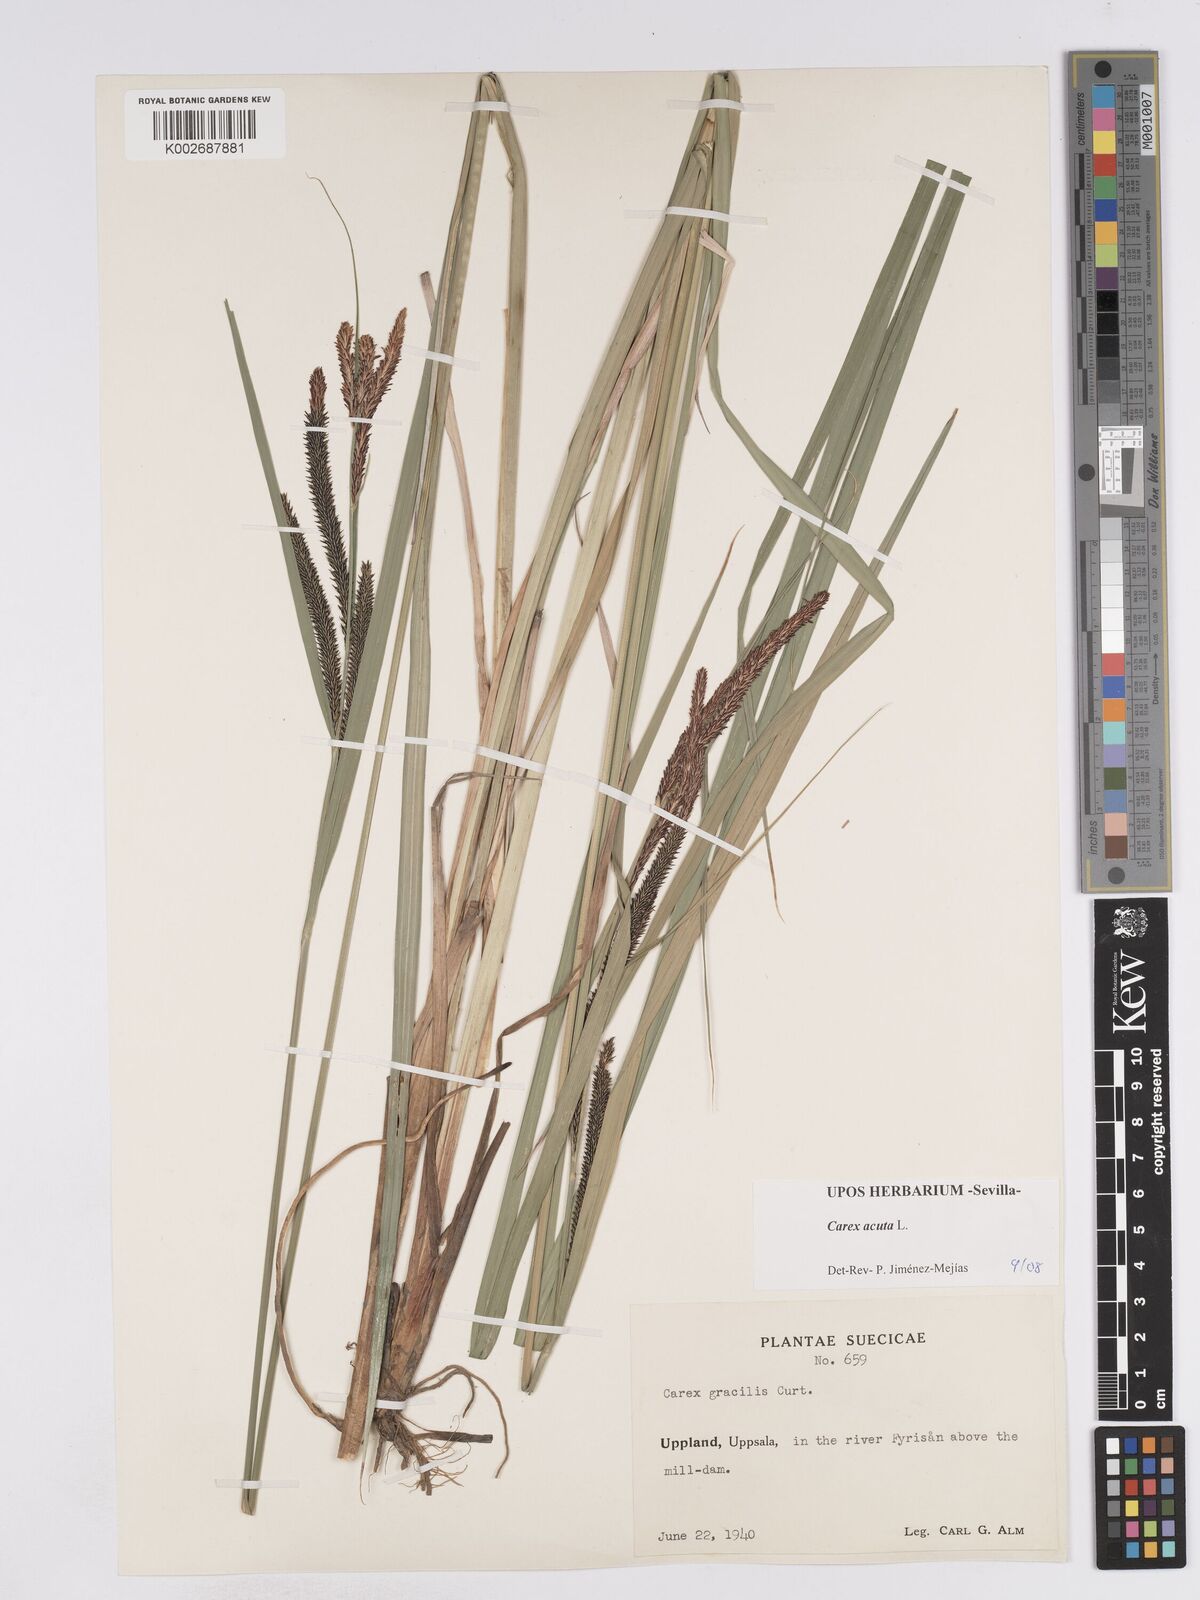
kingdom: Plantae
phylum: Tracheophyta
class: Liliopsida
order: Poales
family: Cyperaceae
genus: Carex
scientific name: Carex acuta
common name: Slender tufted-sedge
